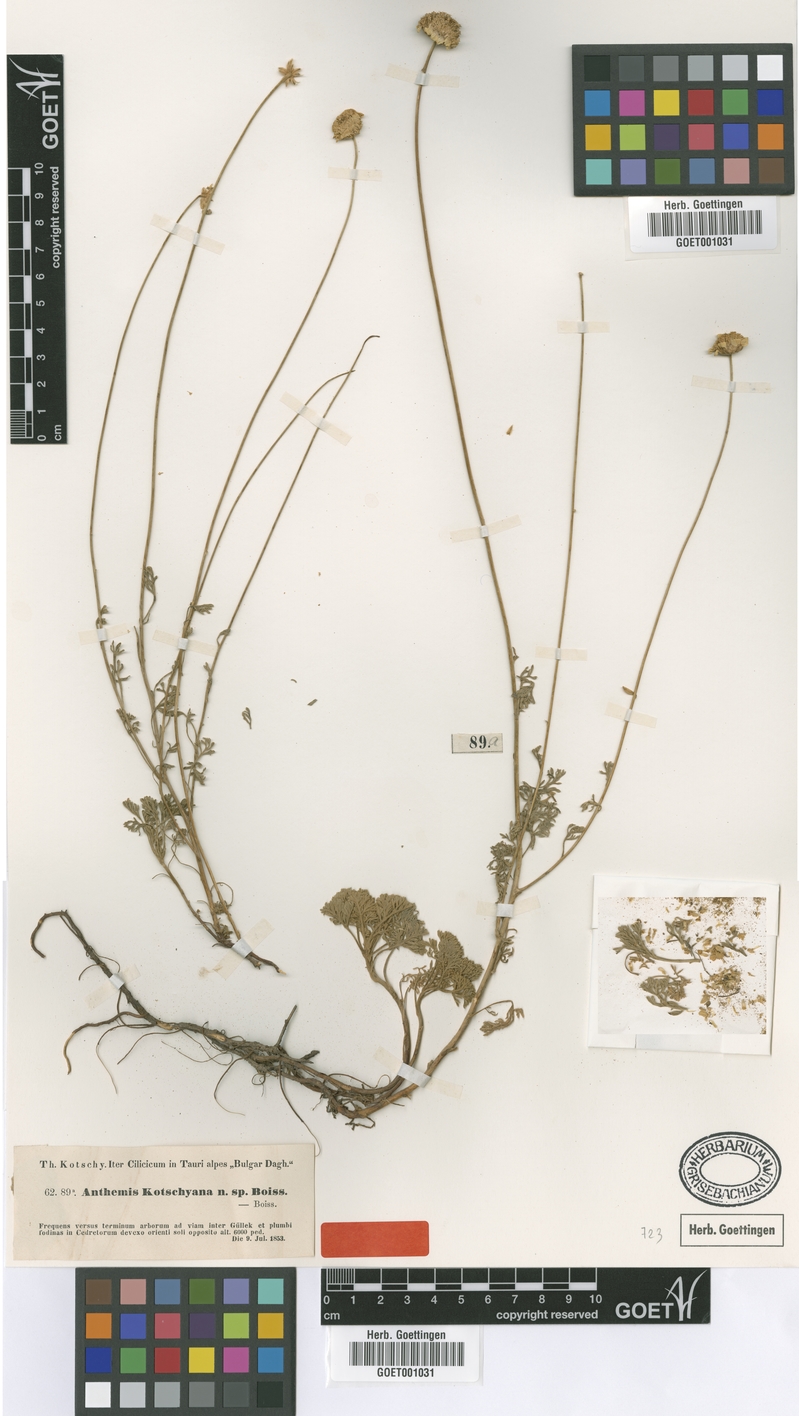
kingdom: Plantae
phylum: Tracheophyta
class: Magnoliopsida
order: Asterales
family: Asteraceae
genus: Anthemis
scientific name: Anthemis kotschyana
